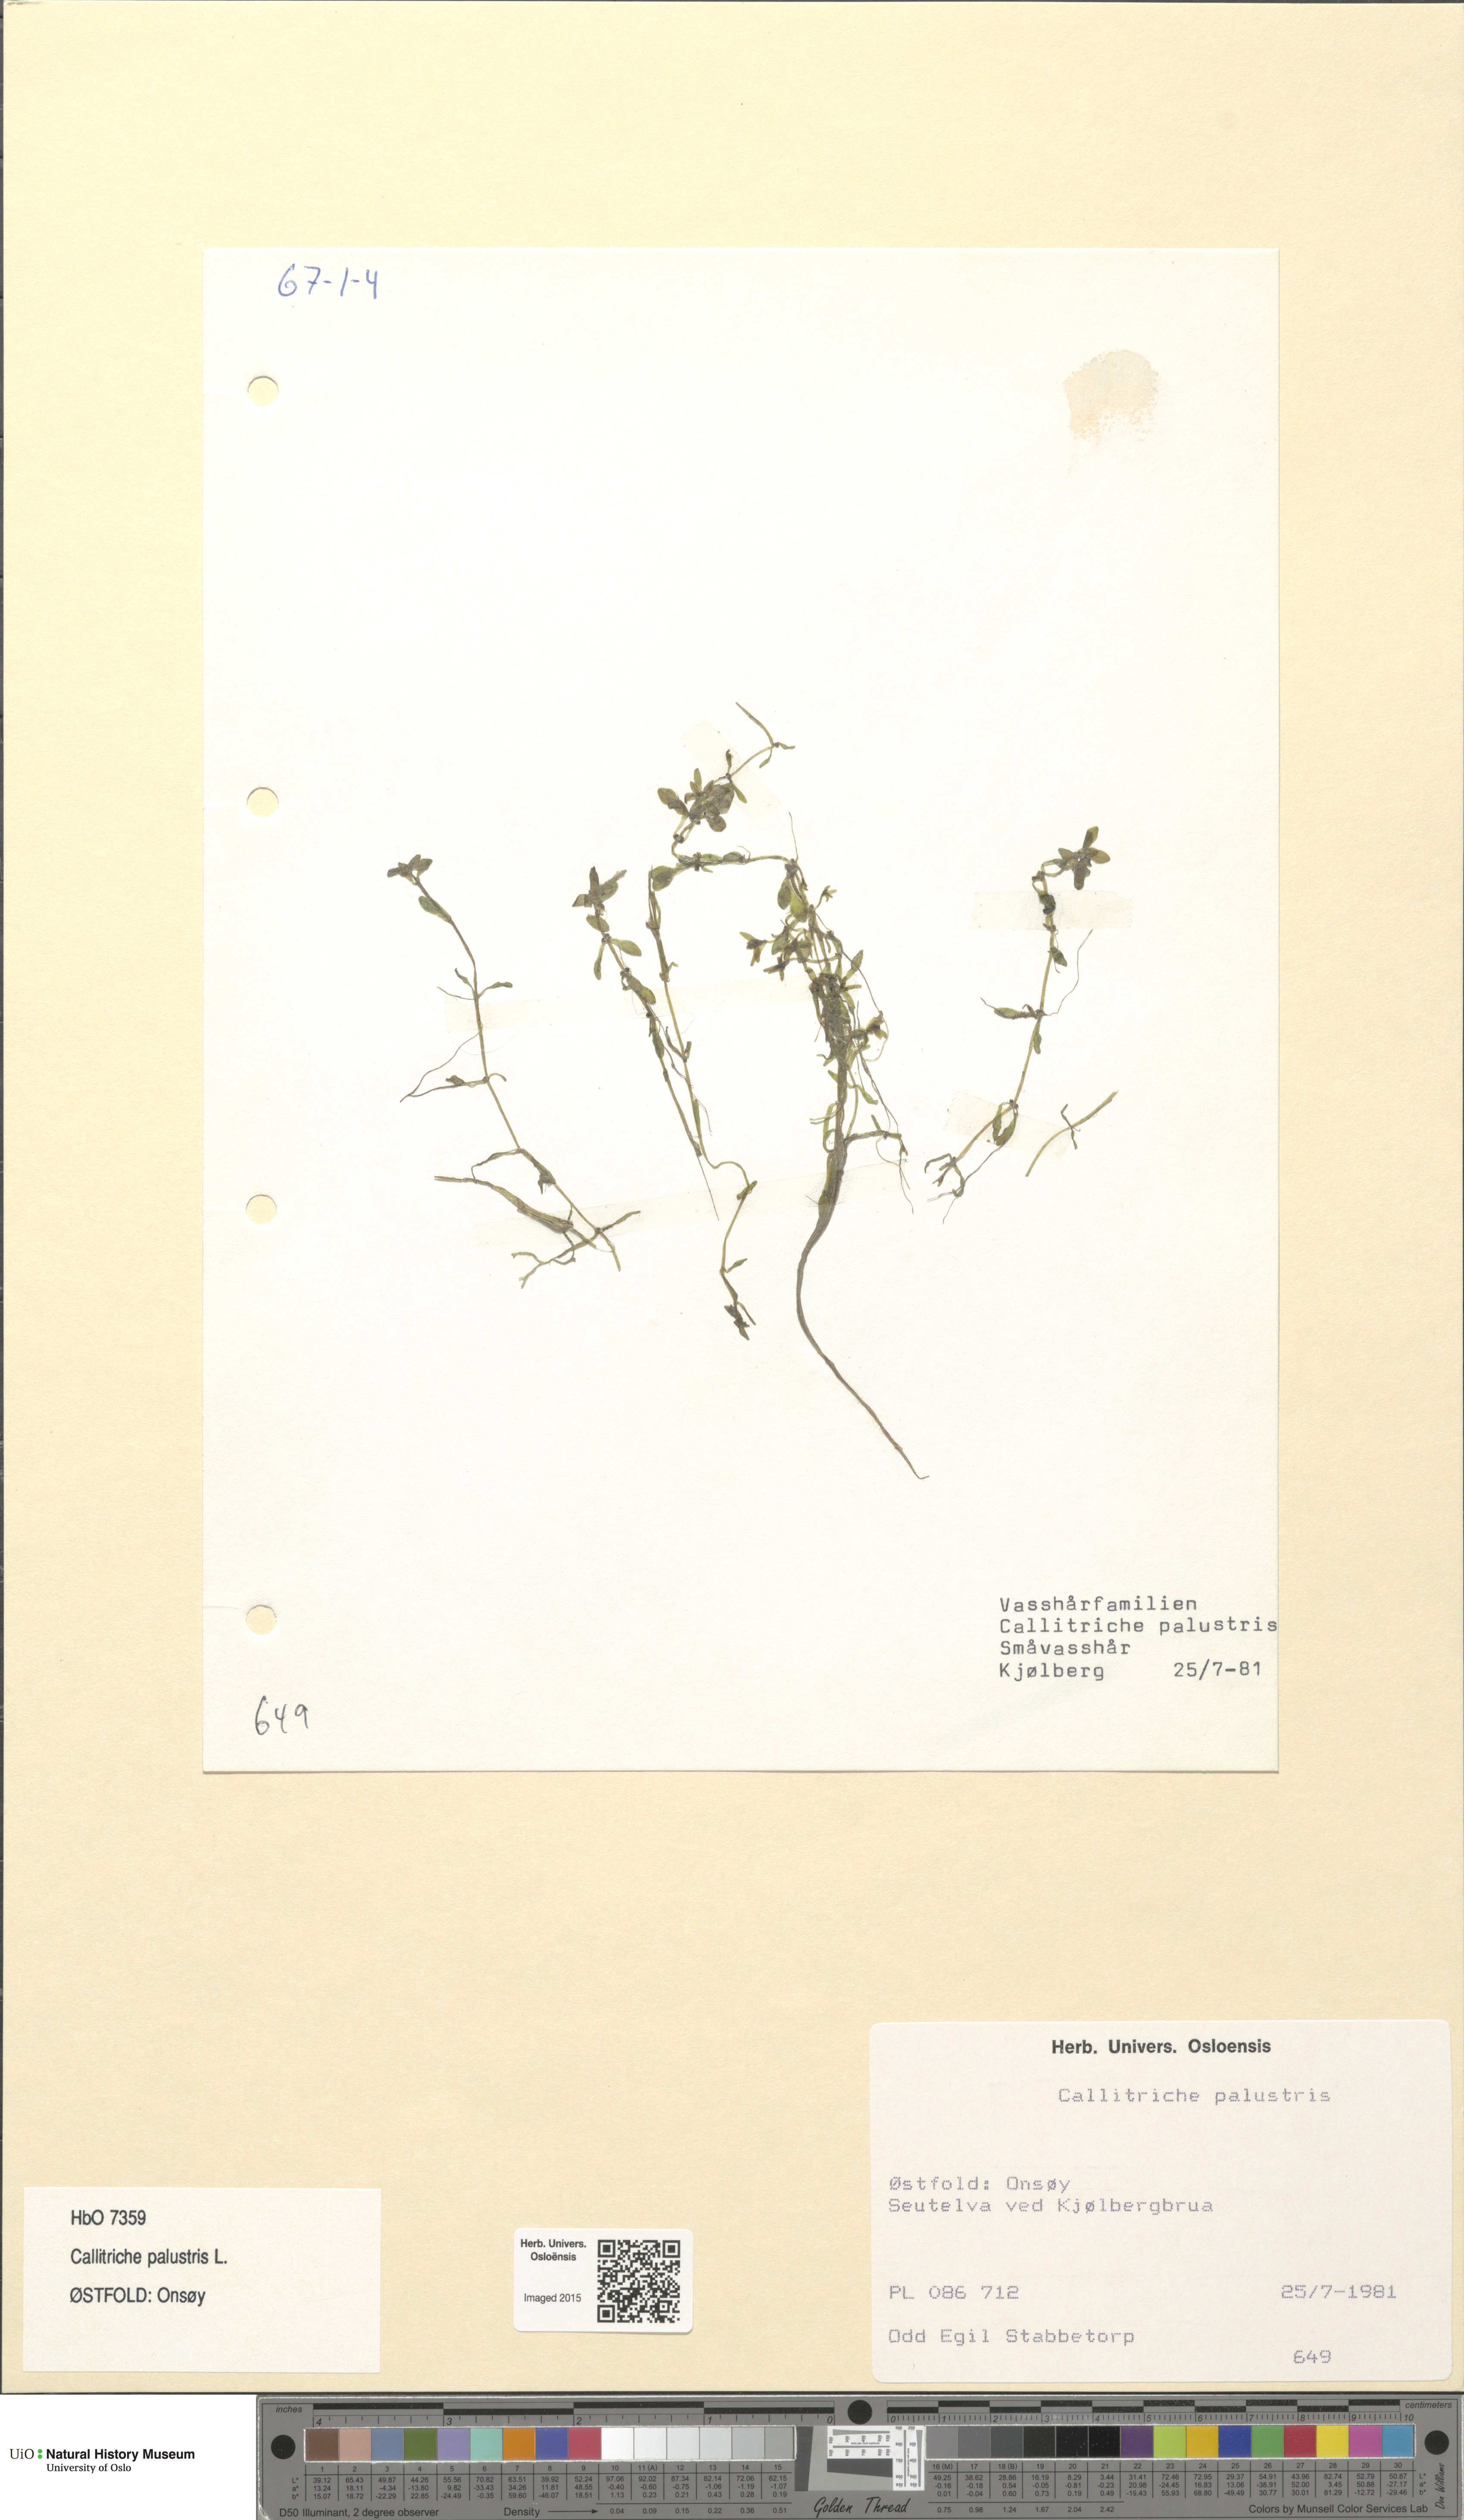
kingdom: Plantae
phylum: Tracheophyta
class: Magnoliopsida
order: Lamiales
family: Plantaginaceae
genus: Callitriche
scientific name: Callitriche palustris
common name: Spring water-starwort
